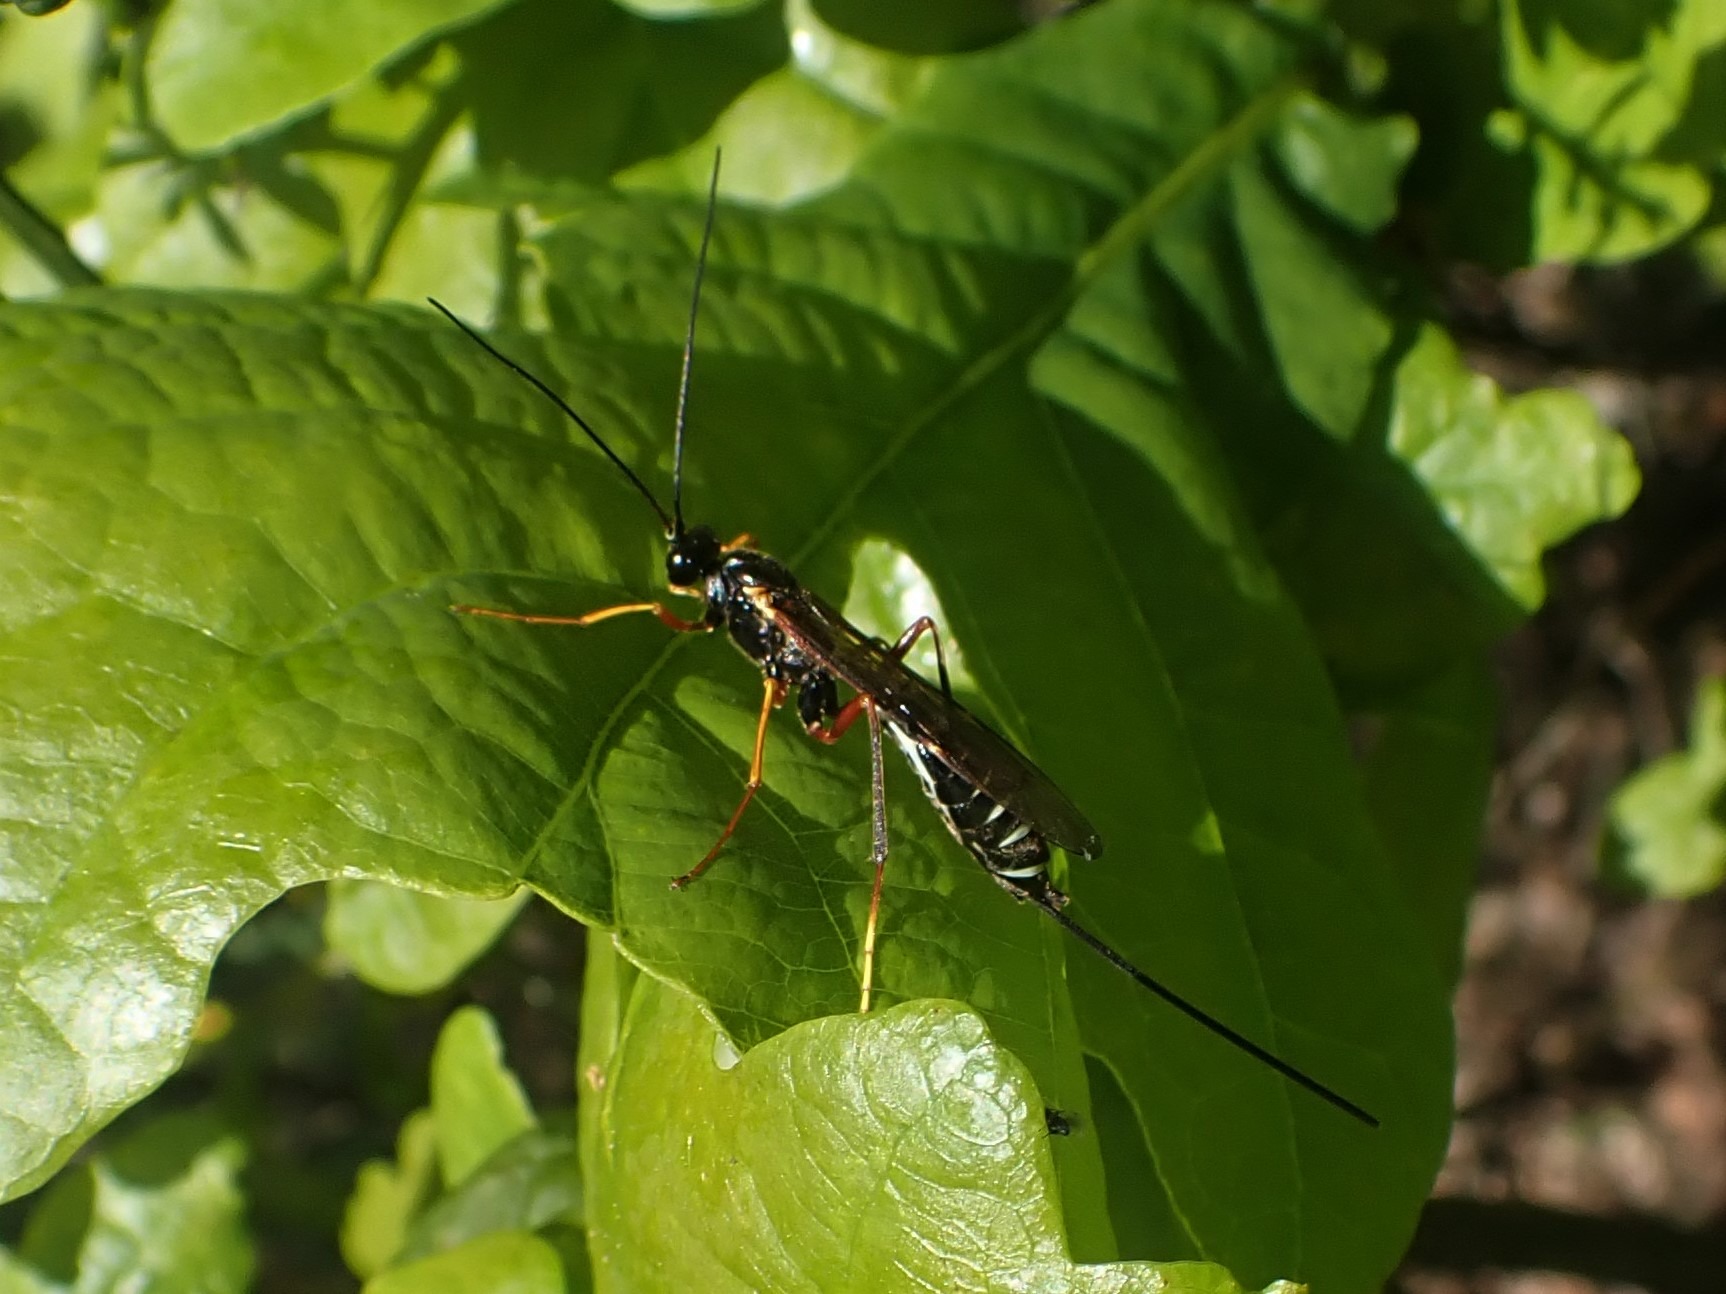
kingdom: Animalia
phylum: Arthropoda
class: Insecta
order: Hymenoptera
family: Ichneumonidae
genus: Coleocentrus
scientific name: Coleocentrus excitator
